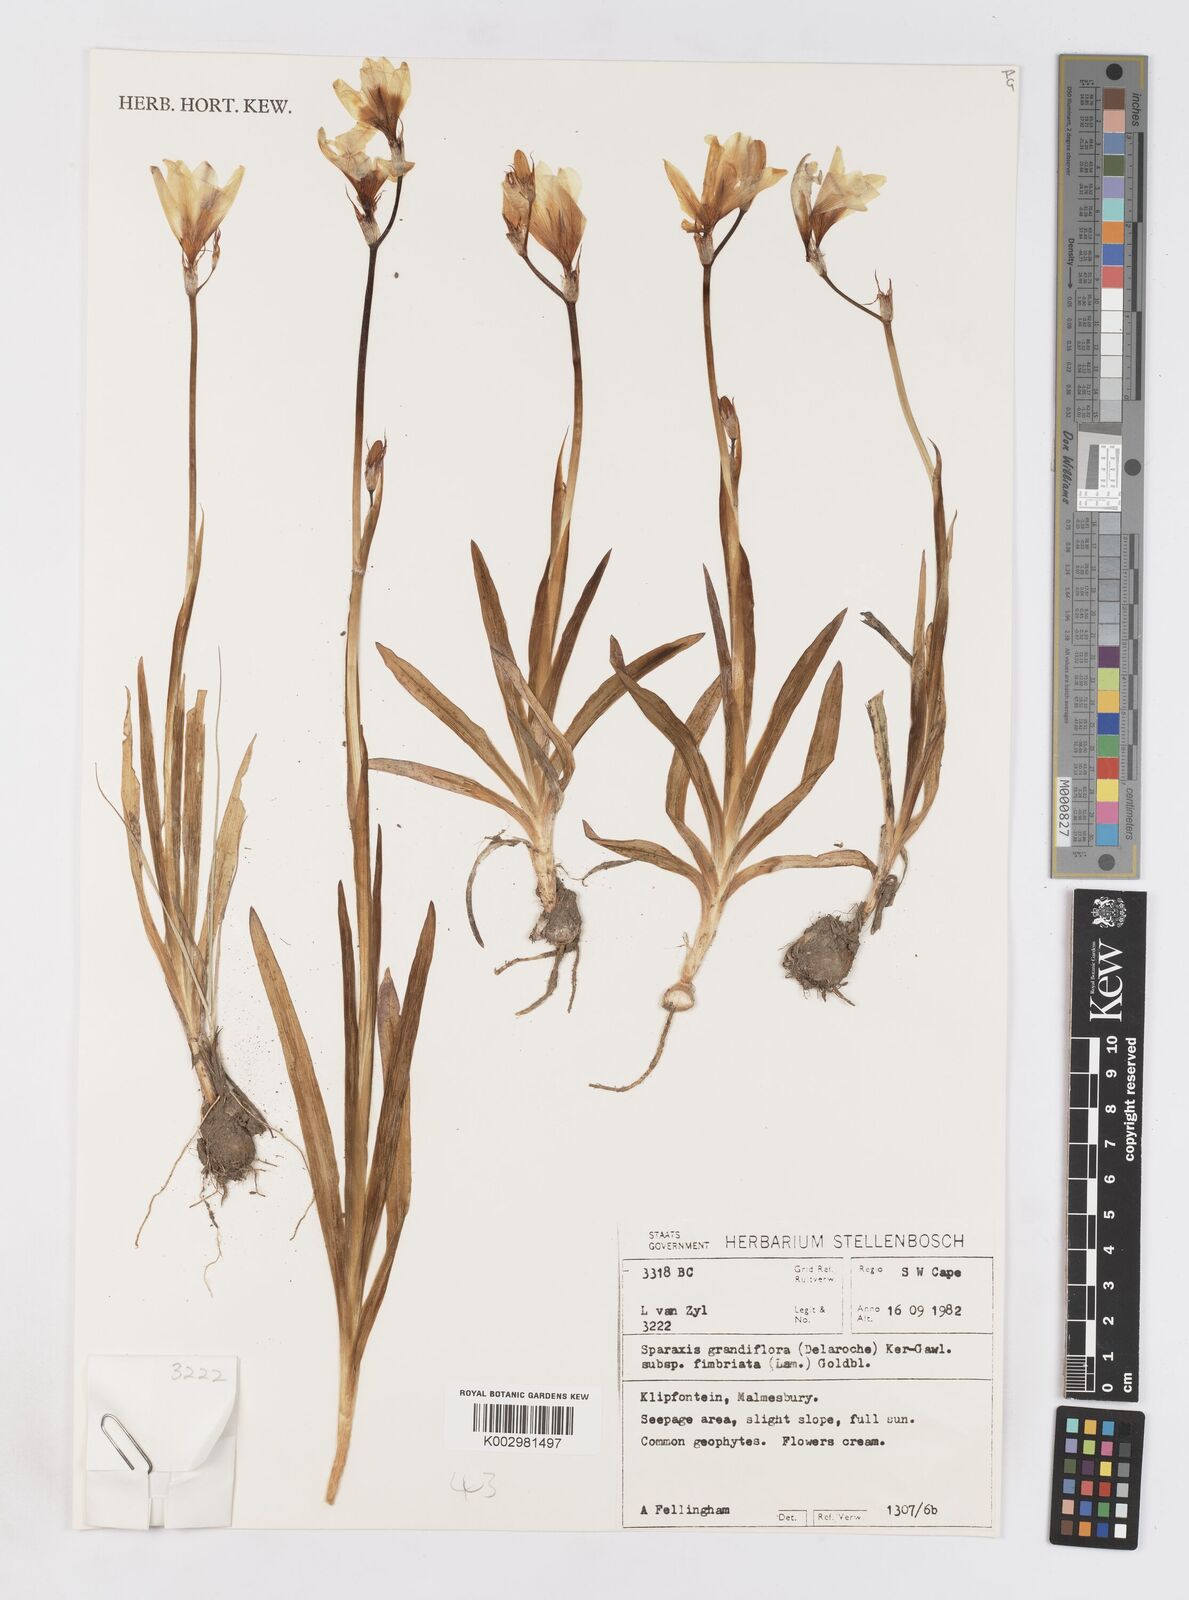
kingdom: Plantae
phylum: Tracheophyta
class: Liliopsida
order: Asparagales
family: Iridaceae
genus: Sparaxis
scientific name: Sparaxis grandiflora
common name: Plain harlequin-flower
